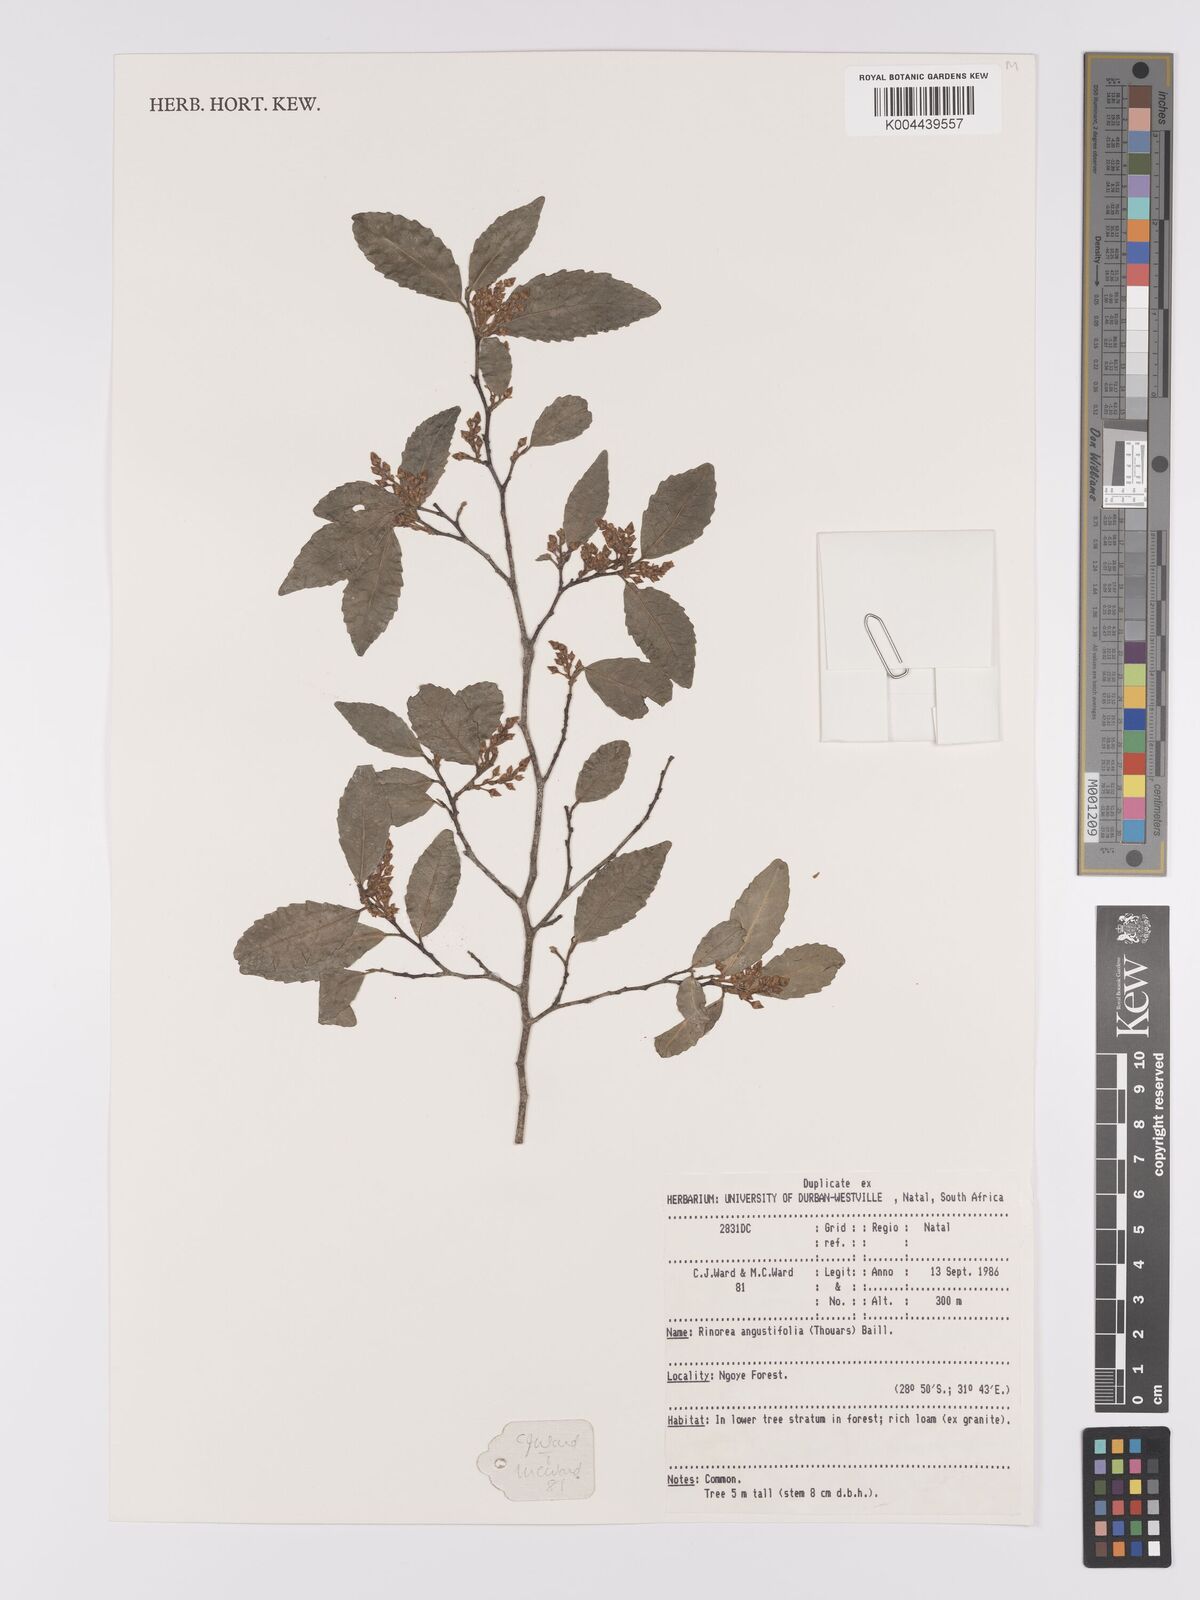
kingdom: Plantae
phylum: Tracheophyta
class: Magnoliopsida
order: Malpighiales
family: Violaceae
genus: Rinorea
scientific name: Rinorea angustifolia
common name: White violet-bush
